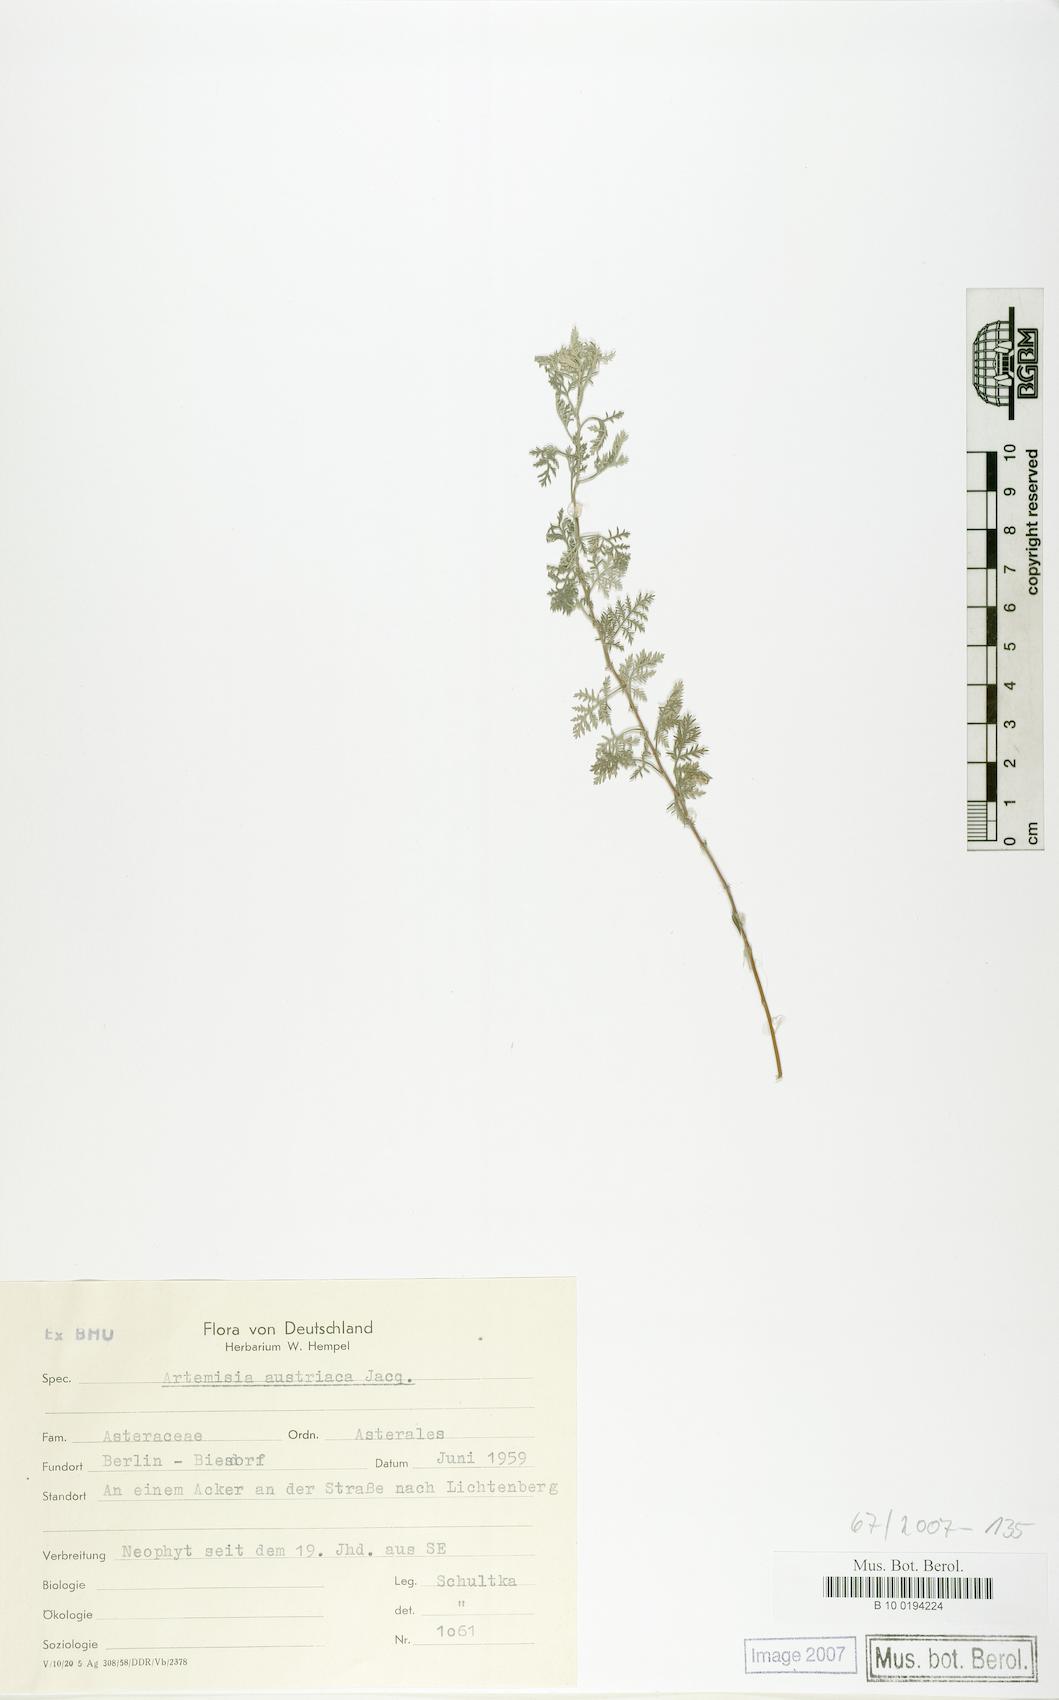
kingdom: Plantae
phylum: Tracheophyta
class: Magnoliopsida
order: Asterales
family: Asteraceae
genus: Artemisia
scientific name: Artemisia austriaca
